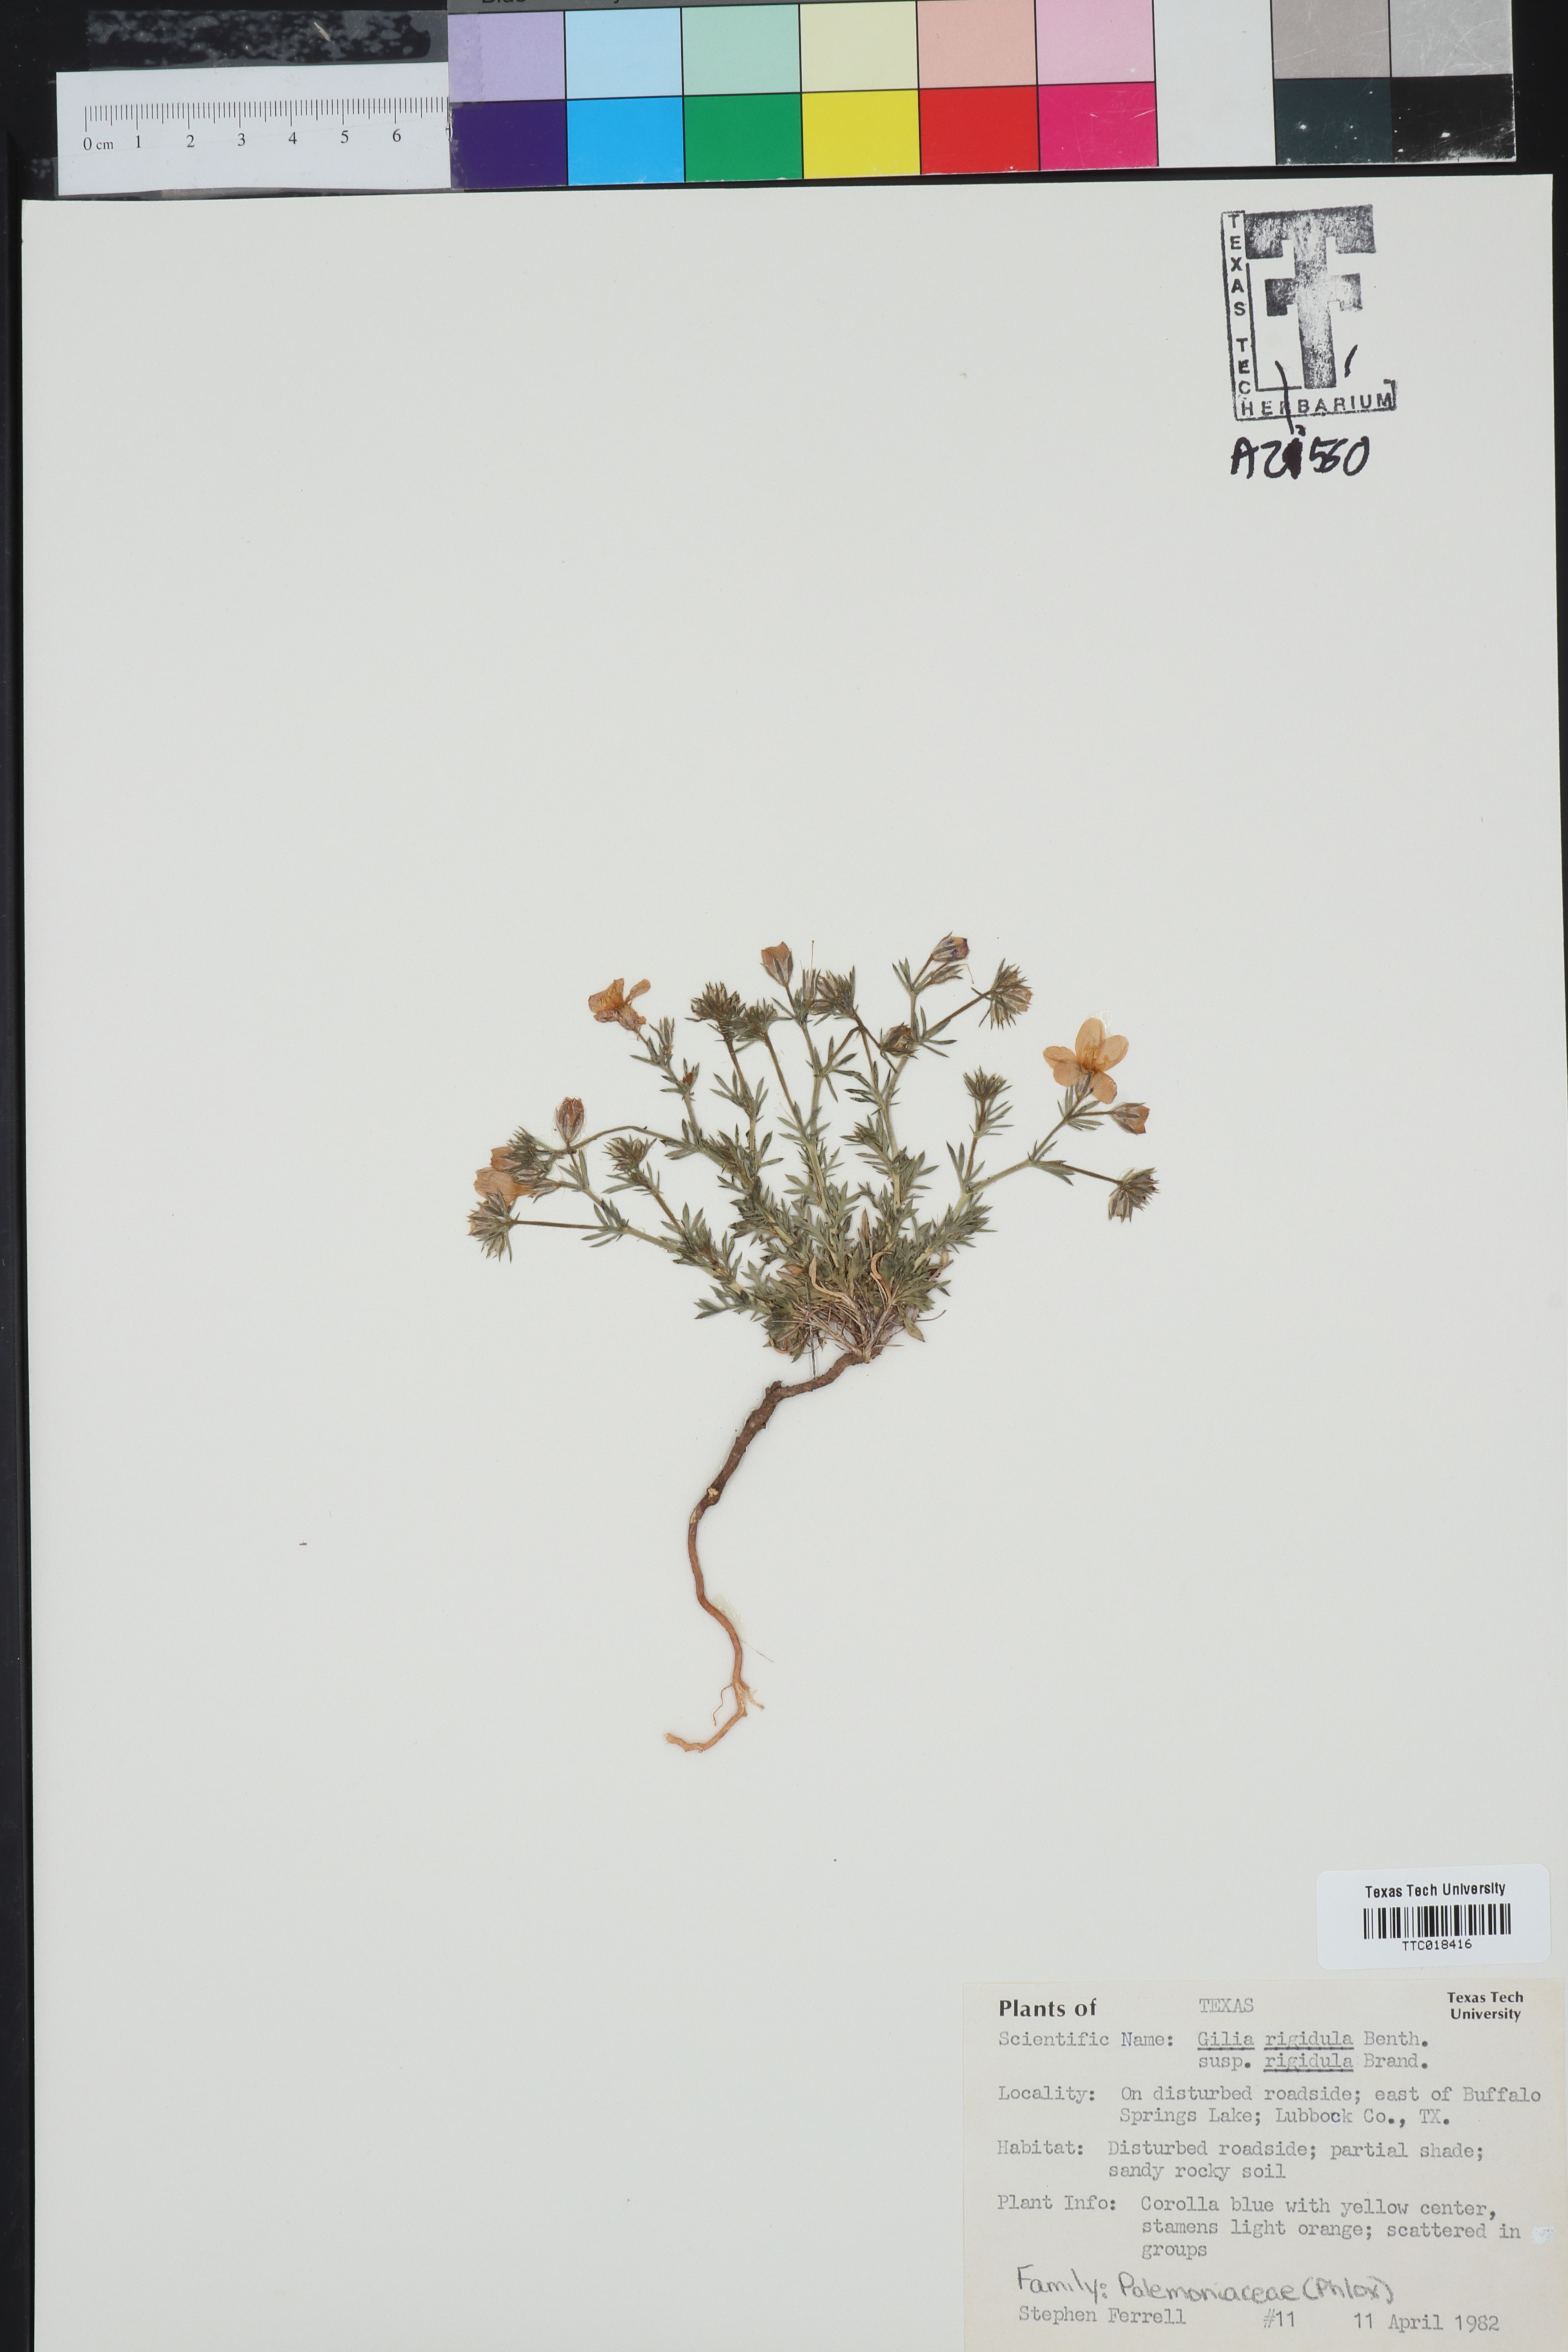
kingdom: Plantae
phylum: Tracheophyta
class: Magnoliopsida
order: Ericales
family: Polemoniaceae
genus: Phlox
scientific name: Phlox
